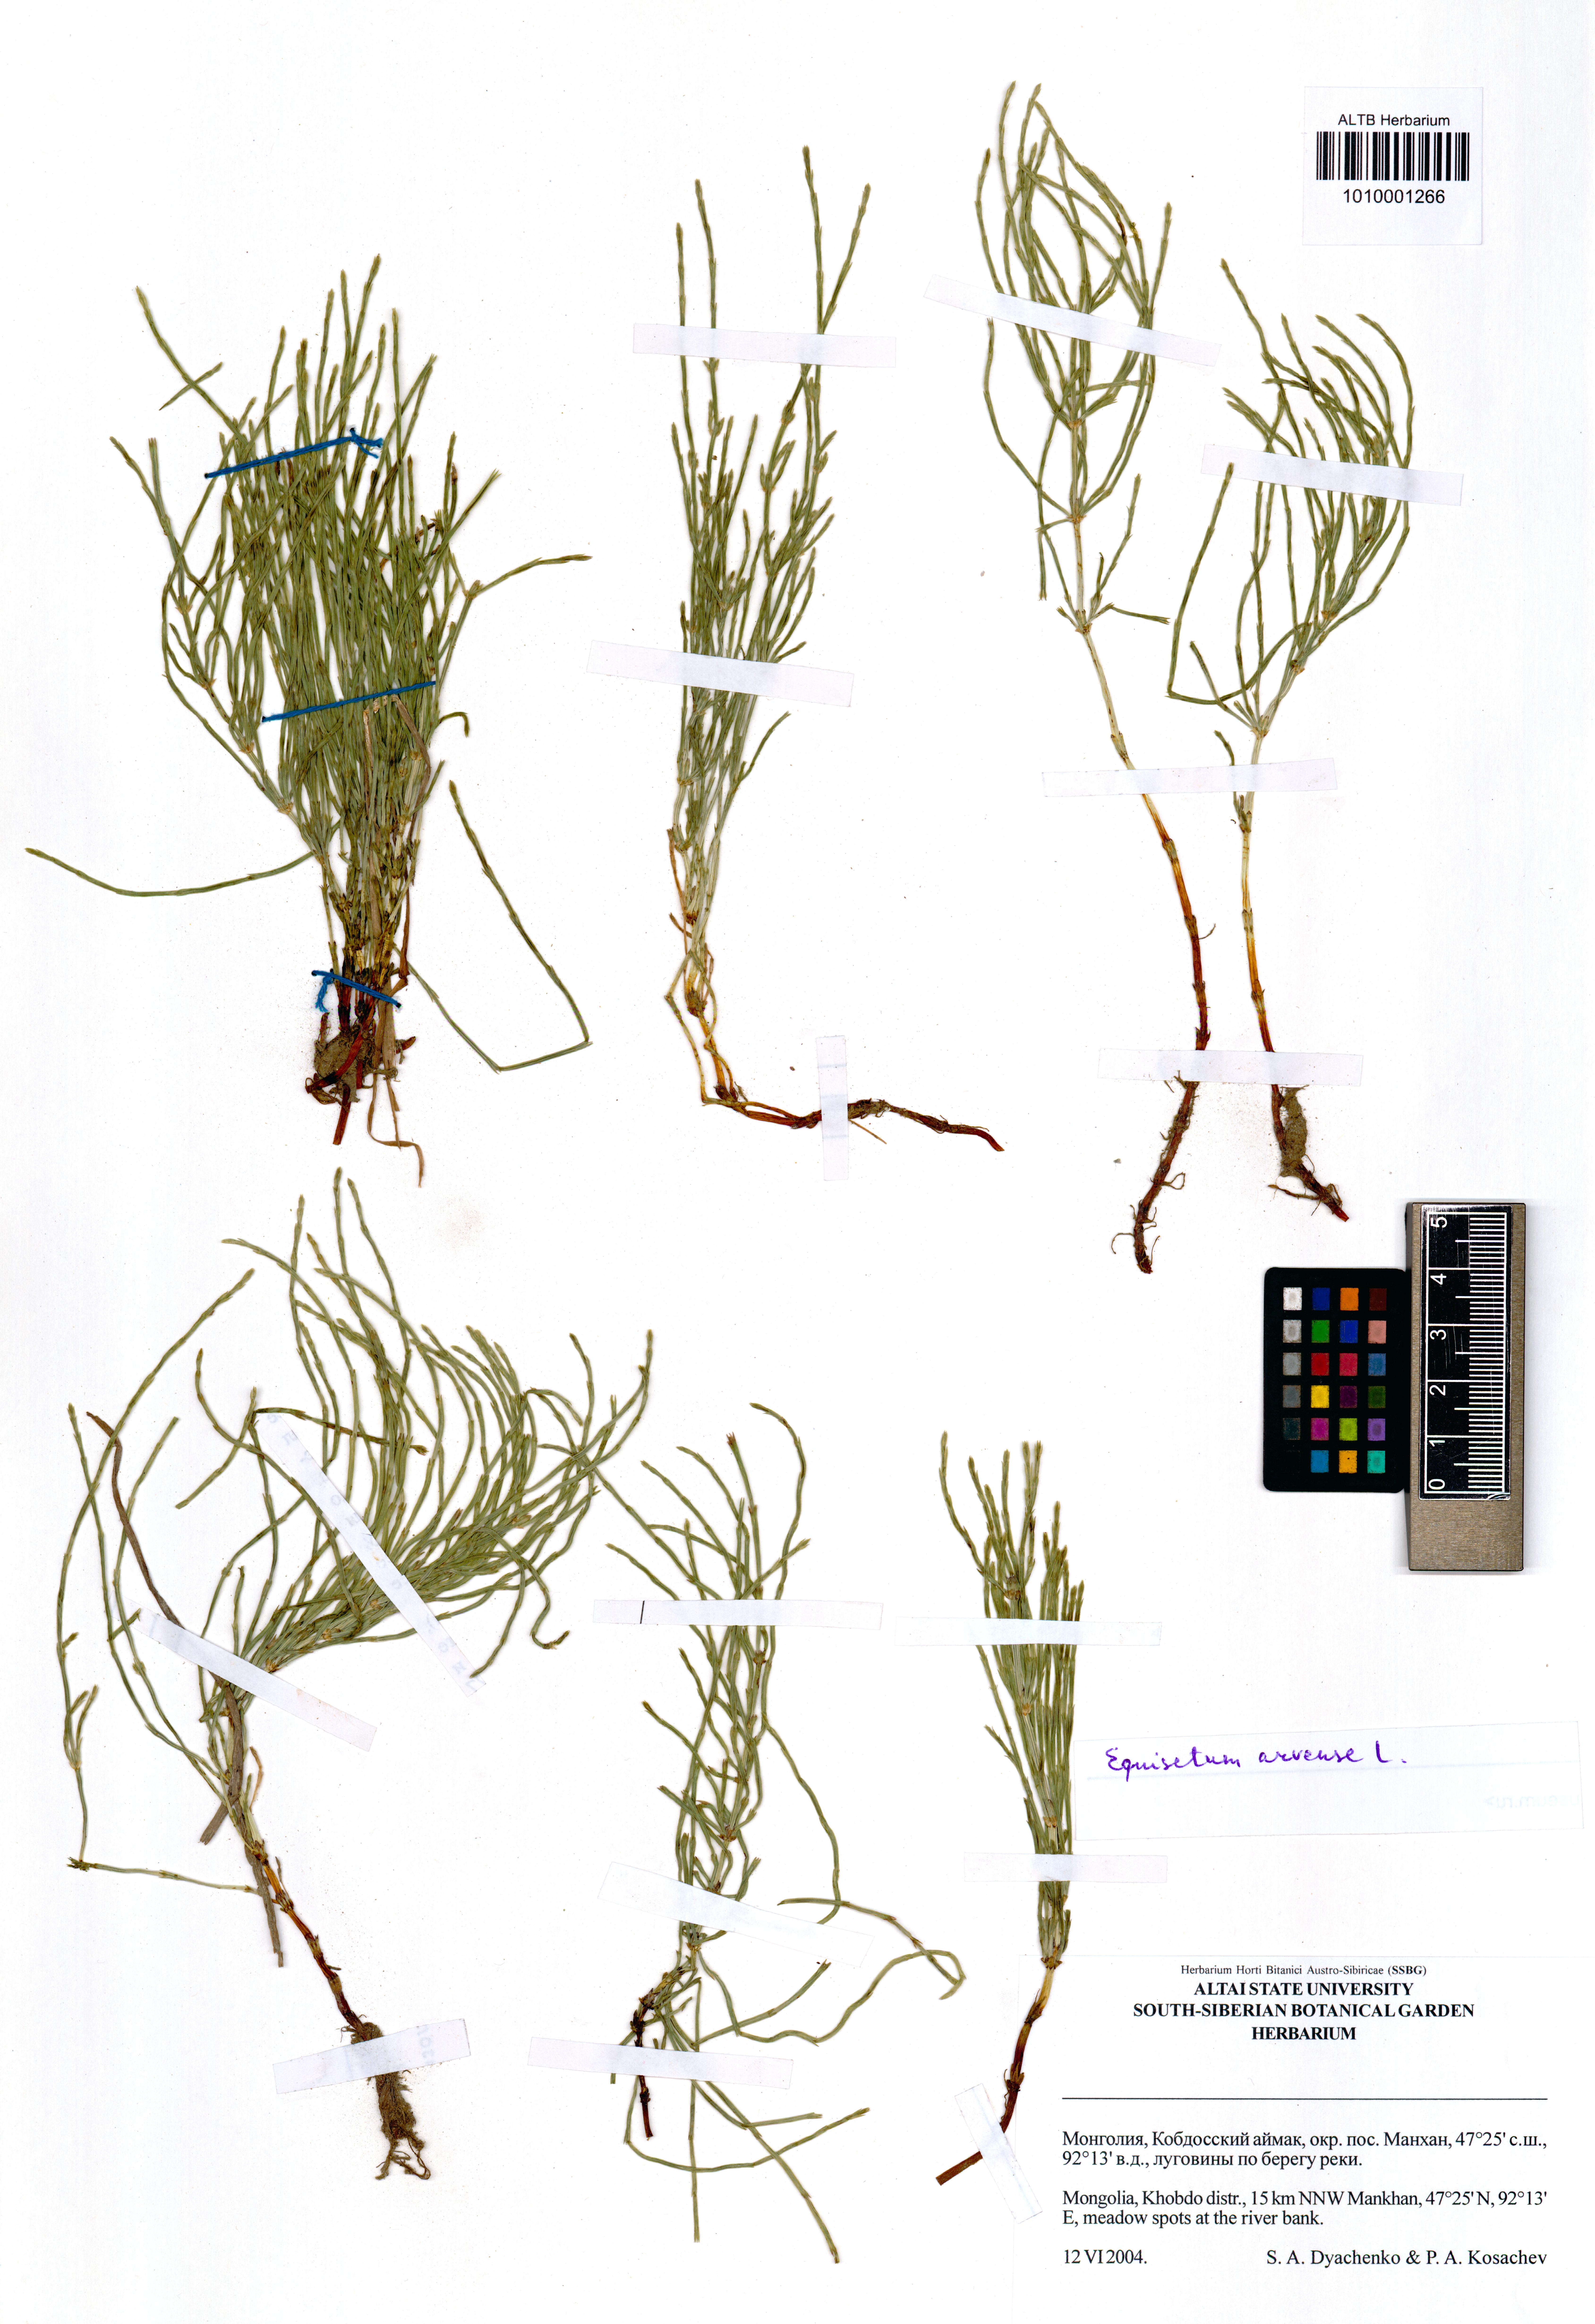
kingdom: Plantae
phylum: Tracheophyta
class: Polypodiopsida
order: Equisetales
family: Equisetaceae
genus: Equisetum
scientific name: Equisetum arvense
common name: Field horsetail
